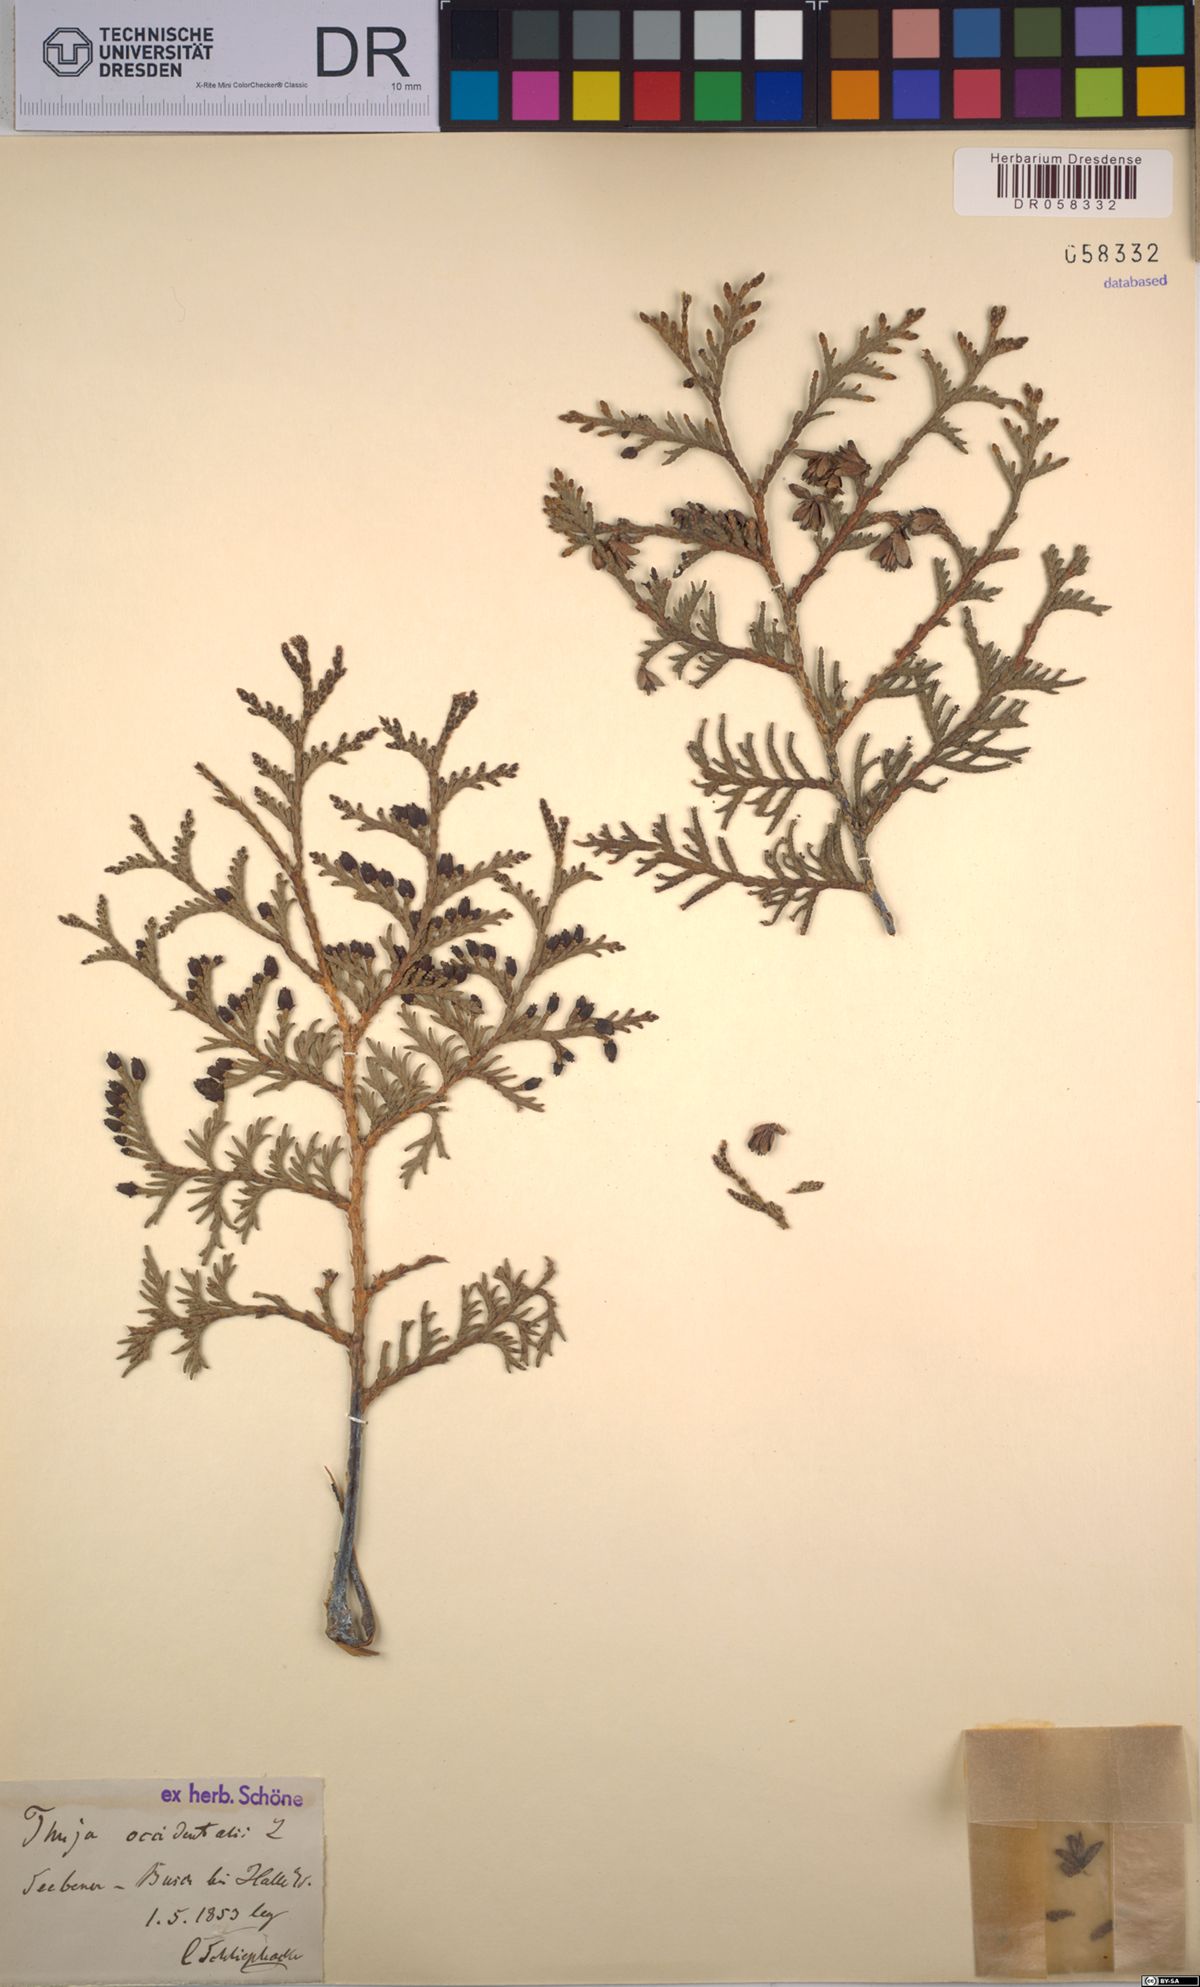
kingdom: Plantae
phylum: Tracheophyta
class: Pinopsida
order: Pinales
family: Cupressaceae
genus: Thuja
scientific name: Thuja occidentalis
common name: Northern white-cedar
